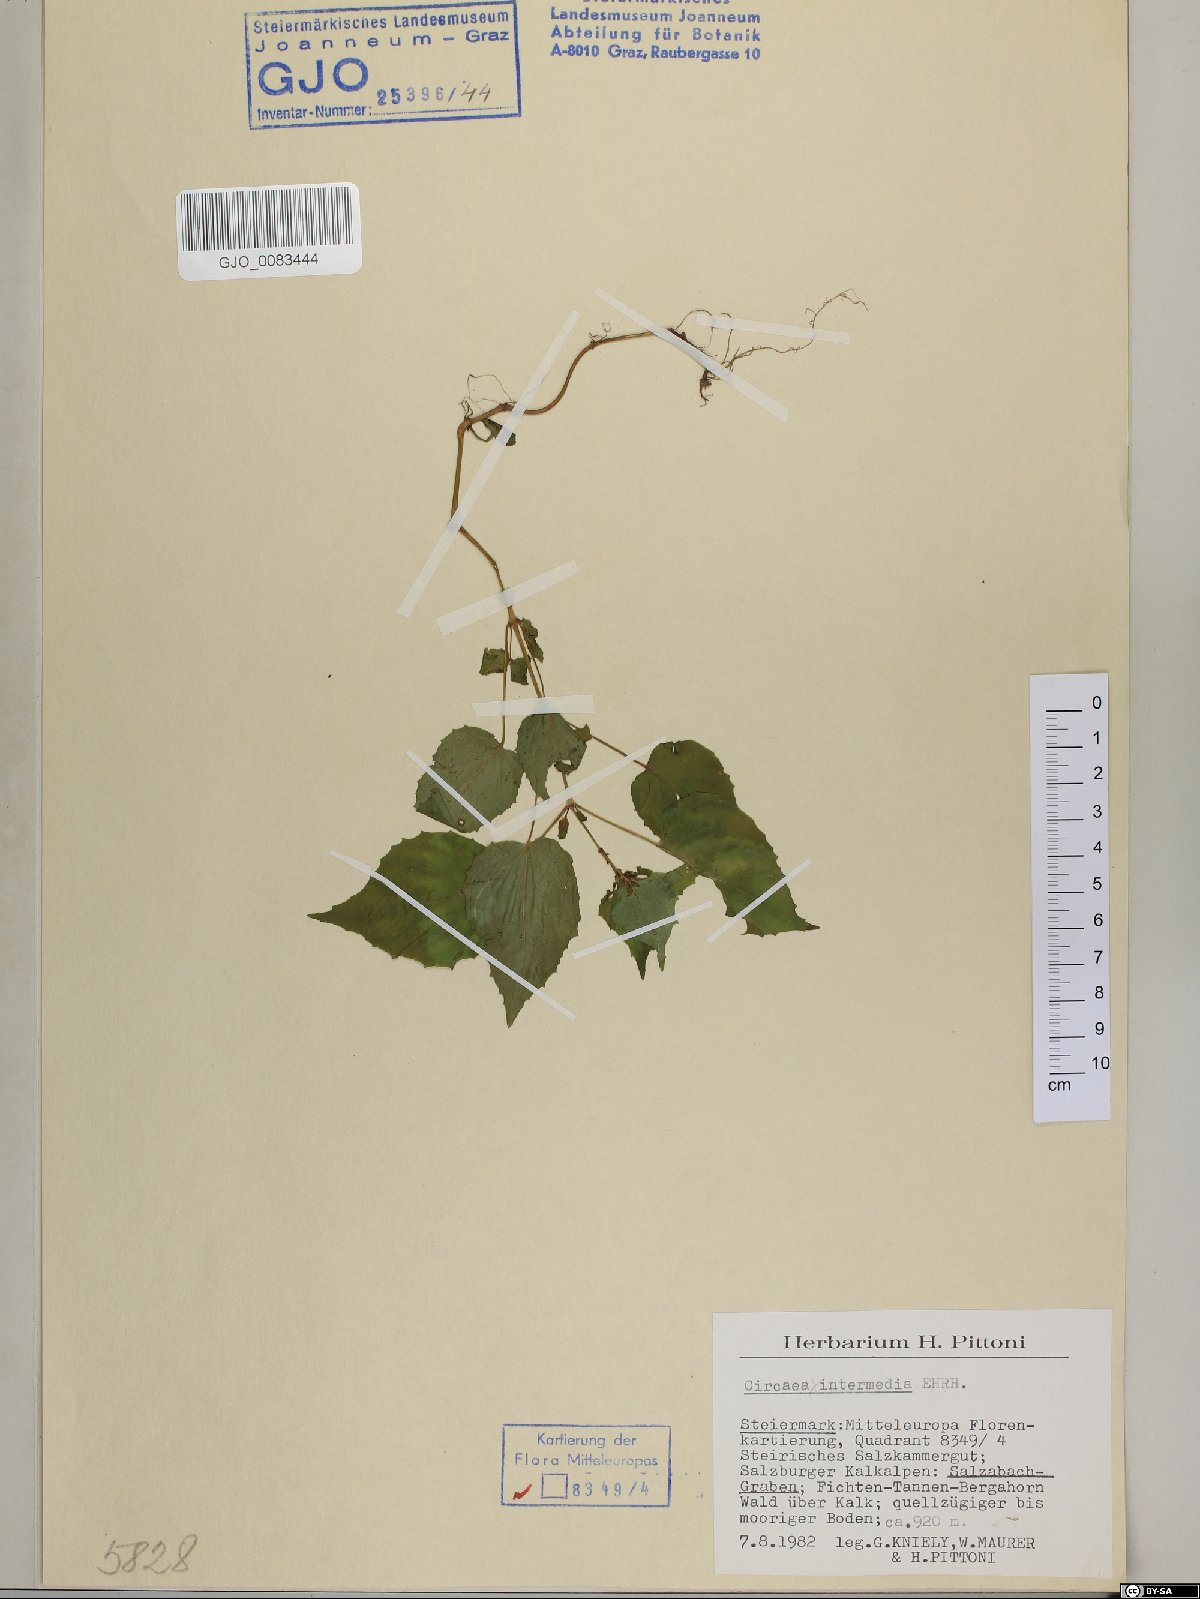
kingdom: Plantae
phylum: Tracheophyta
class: Magnoliopsida
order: Myrtales
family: Onagraceae
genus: Circaea
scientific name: Circaea intermedia
